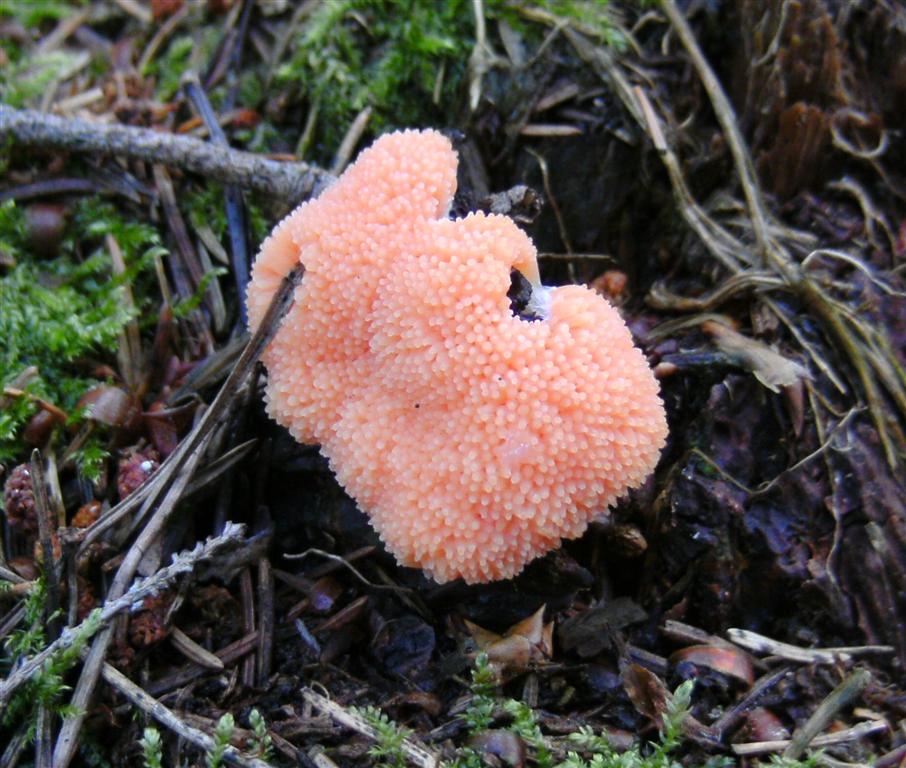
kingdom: Protozoa
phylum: Mycetozoa
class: Myxomycetes
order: Cribrariales
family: Tubiferaceae
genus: Tubifera
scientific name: Tubifera ferruginosa
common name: kanel-støvrør
